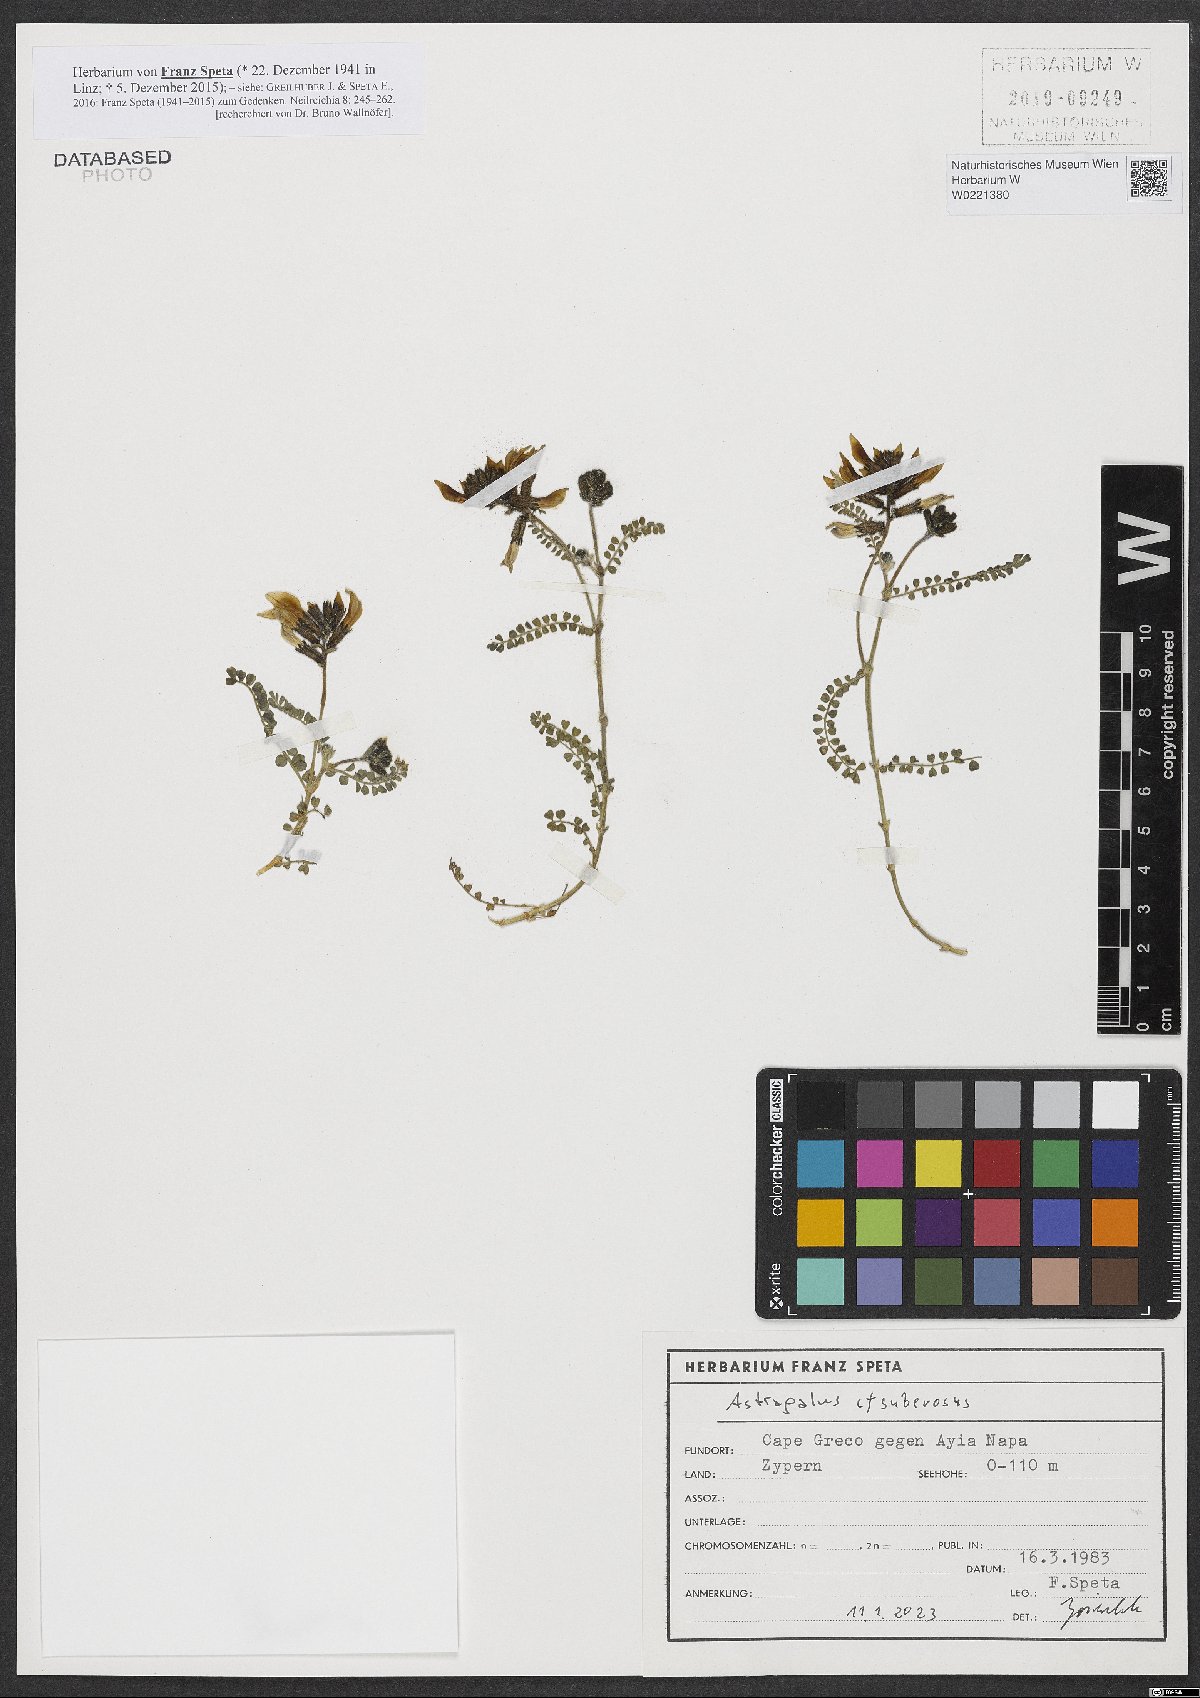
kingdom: Plantae
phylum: Tracheophyta
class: Magnoliopsida
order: Fabales
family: Fabaceae
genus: Astragalus
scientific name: Astragalus suberosus
